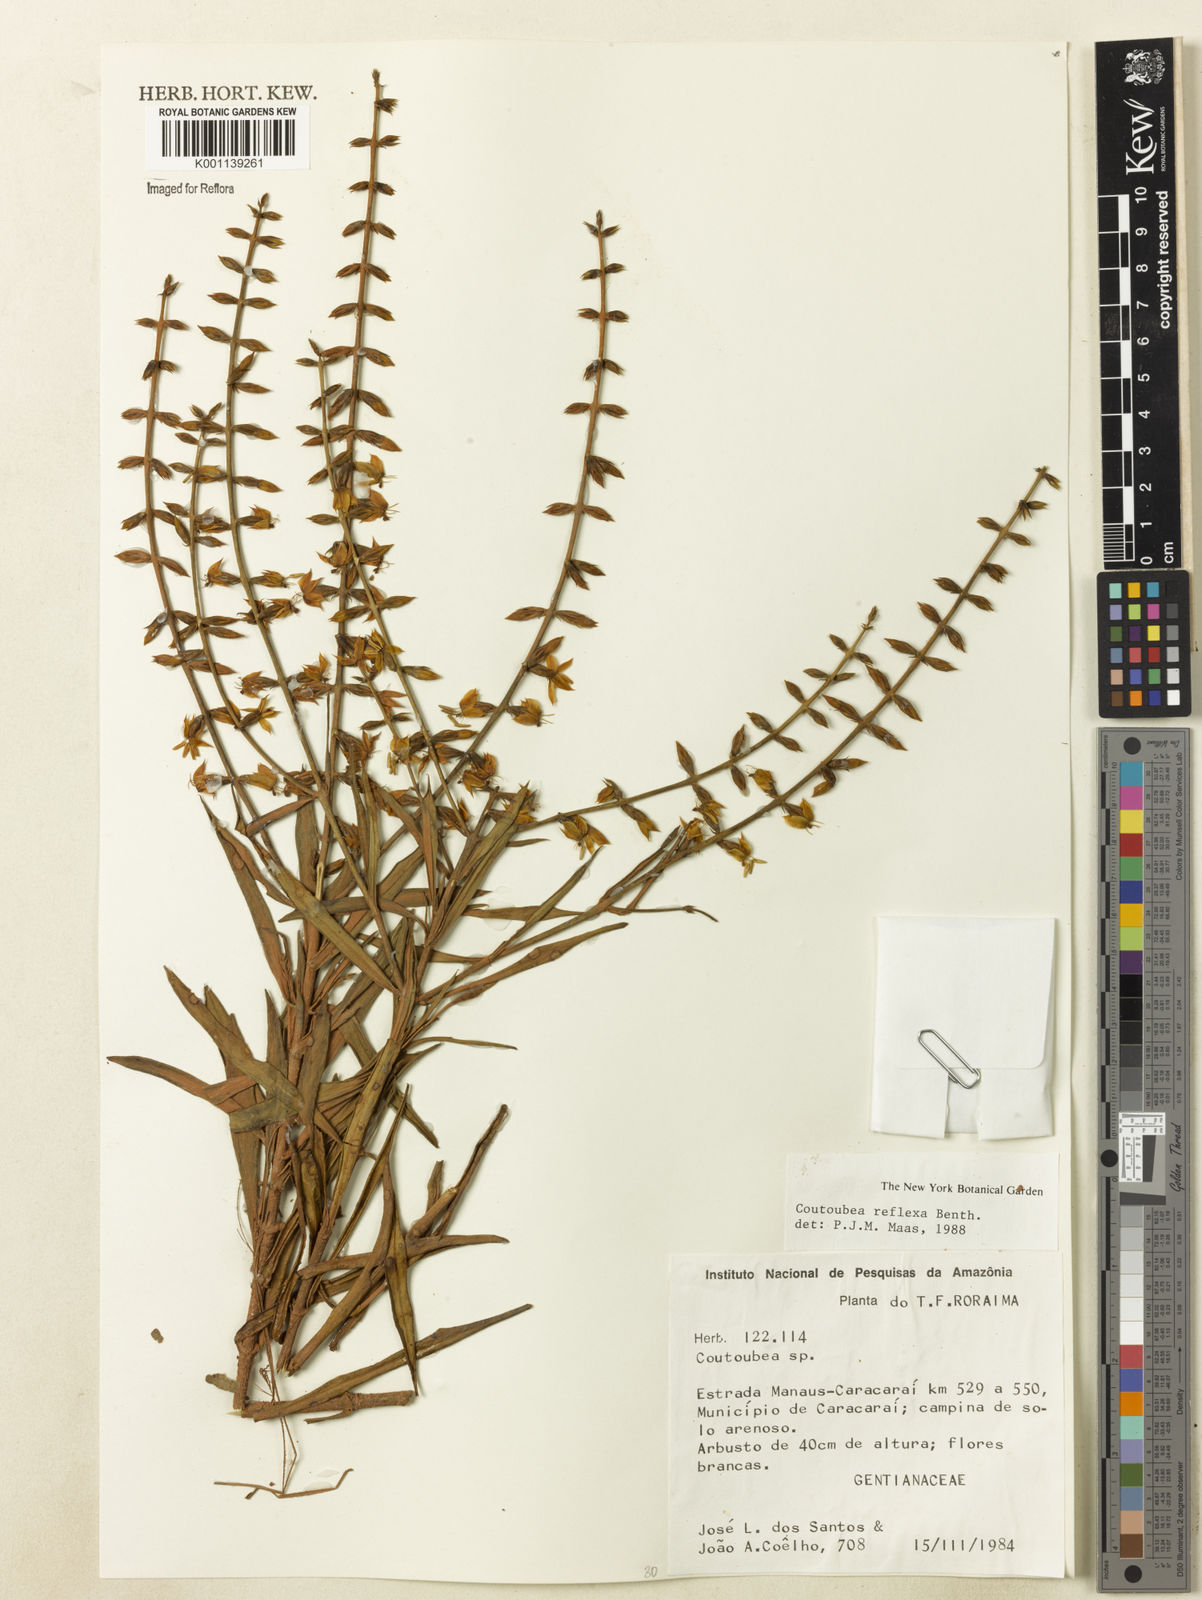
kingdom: Plantae
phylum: Tracheophyta
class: Magnoliopsida
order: Gentianales
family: Gentianaceae
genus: Coutoubea
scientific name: Coutoubea reflexa
